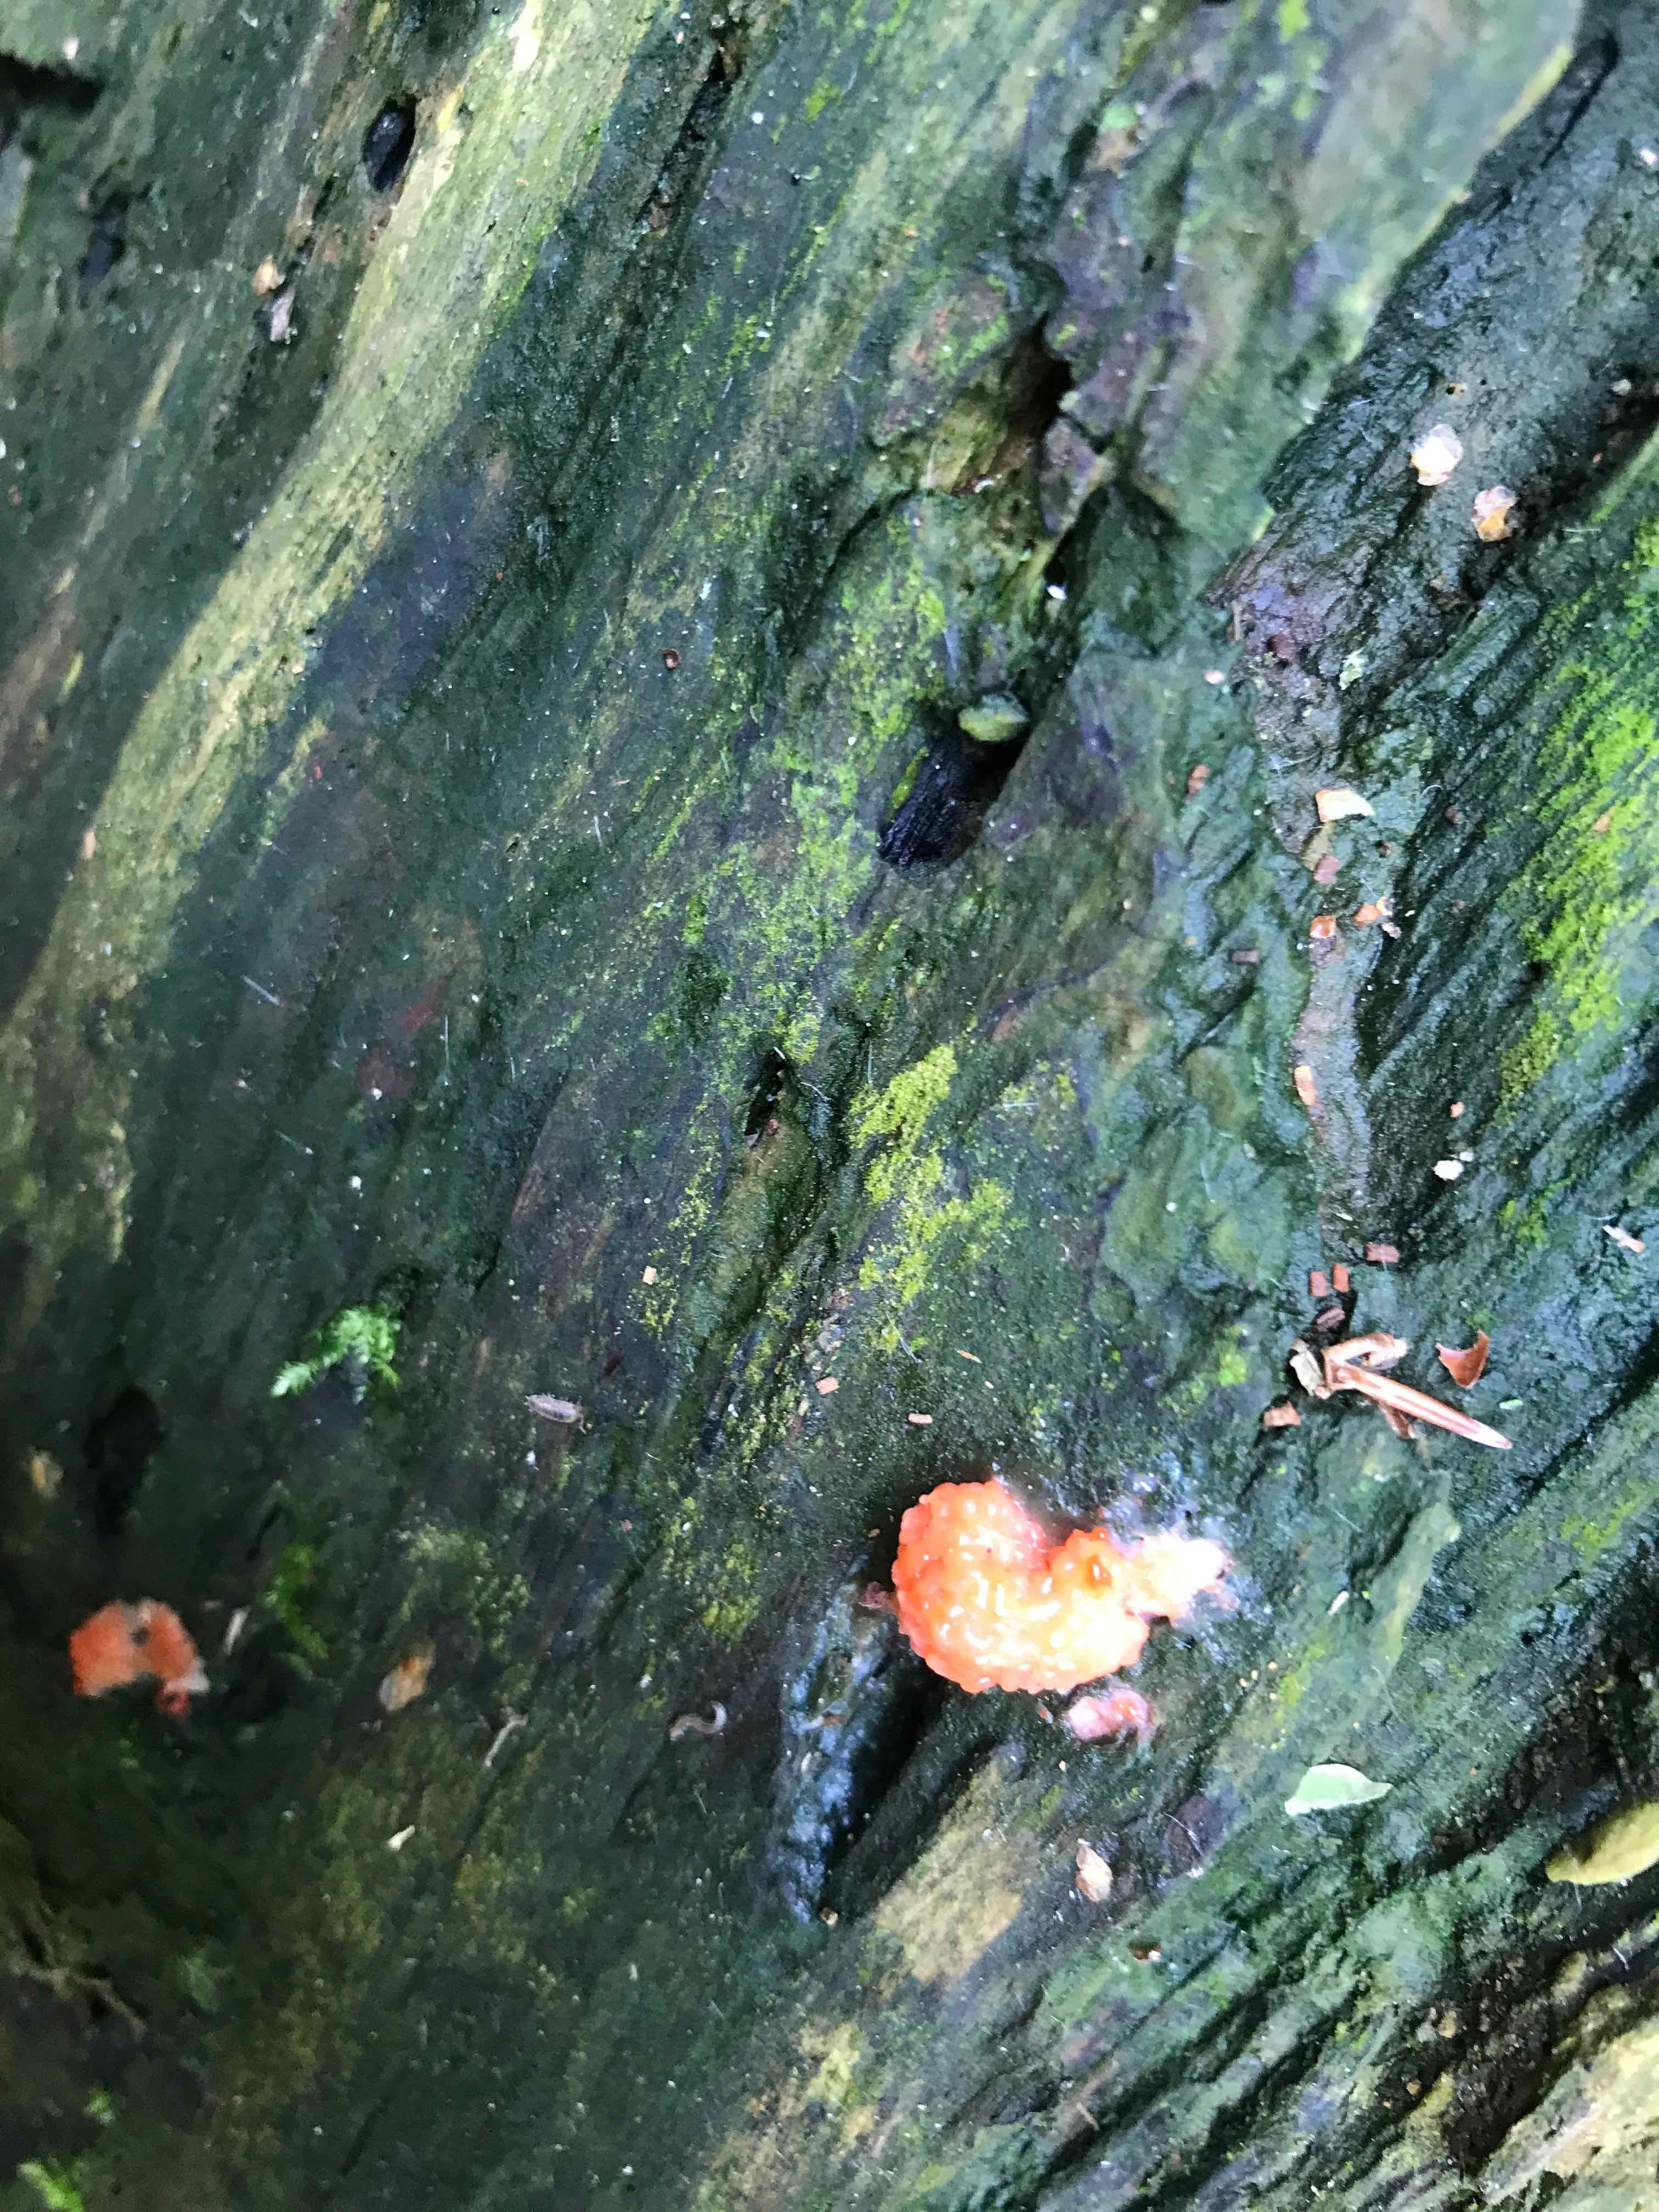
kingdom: Protozoa
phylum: Mycetozoa
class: Myxomycetes
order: Cribrariales
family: Tubiferaceae
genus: Tubifera
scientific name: Tubifera ferruginosa
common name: kanel-støvrør
